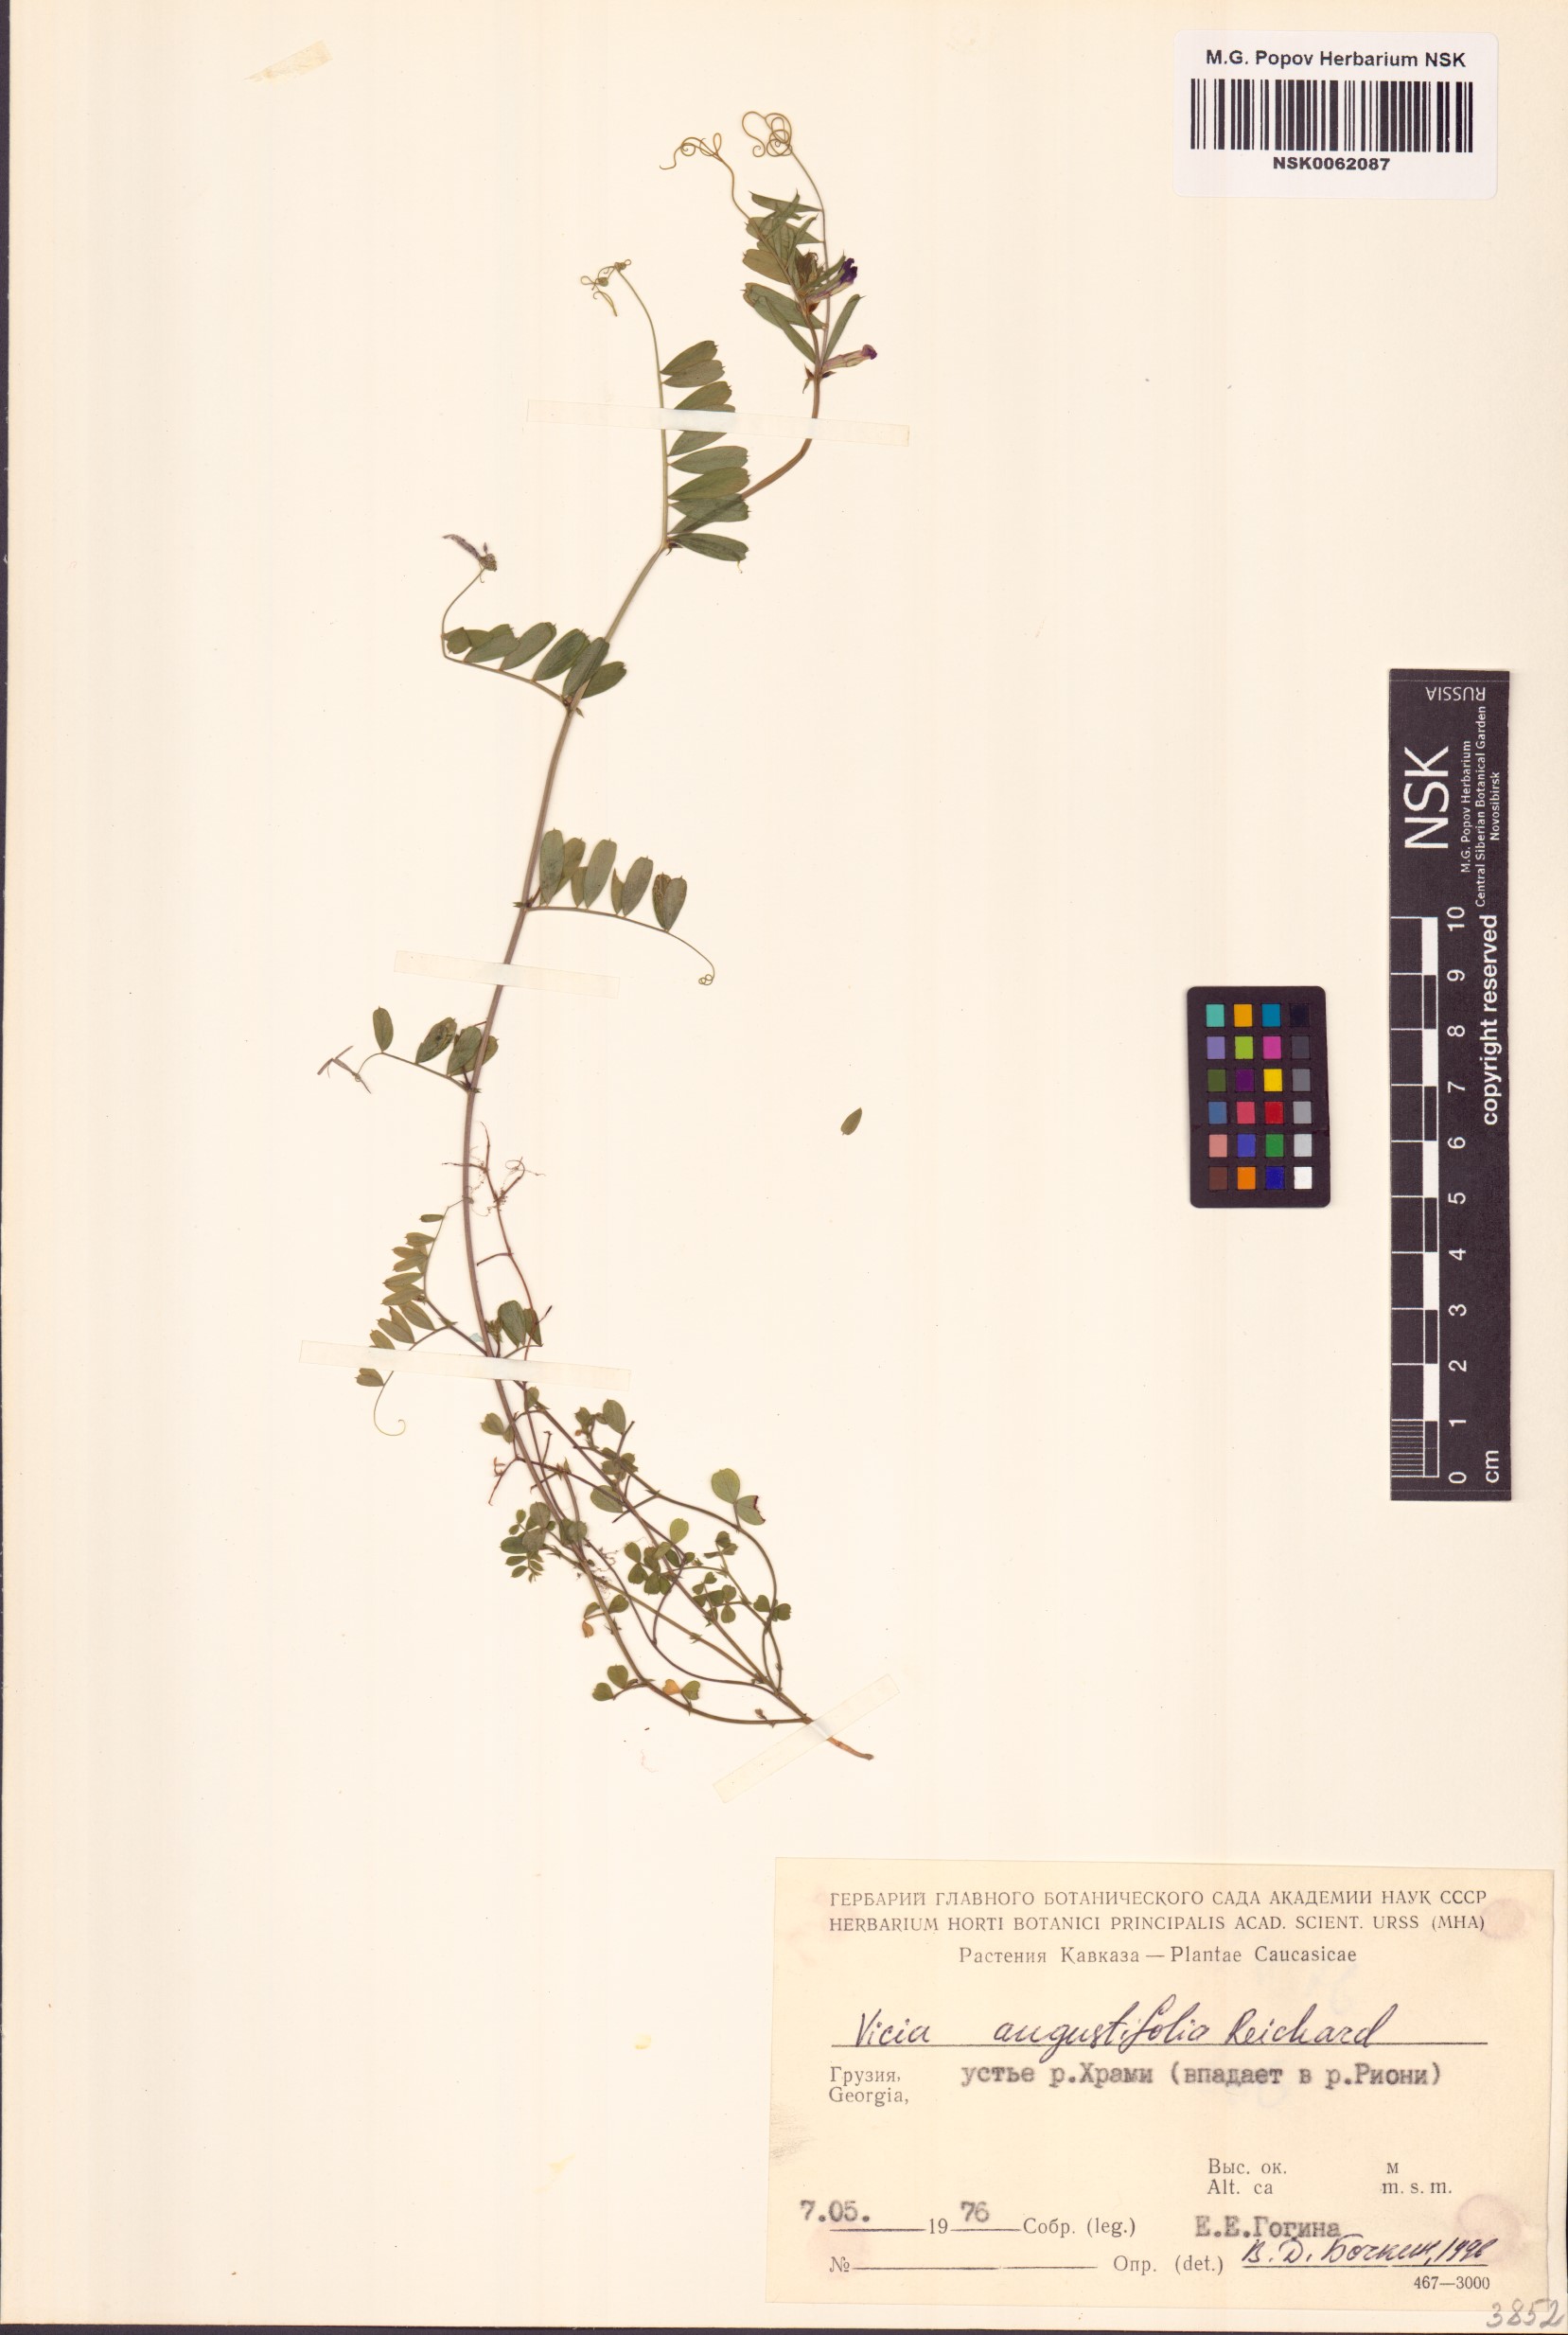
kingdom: Plantae
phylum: Tracheophyta
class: Magnoliopsida
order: Fabales
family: Fabaceae
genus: Vicia
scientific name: Vicia sativa
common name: Garden vetch
